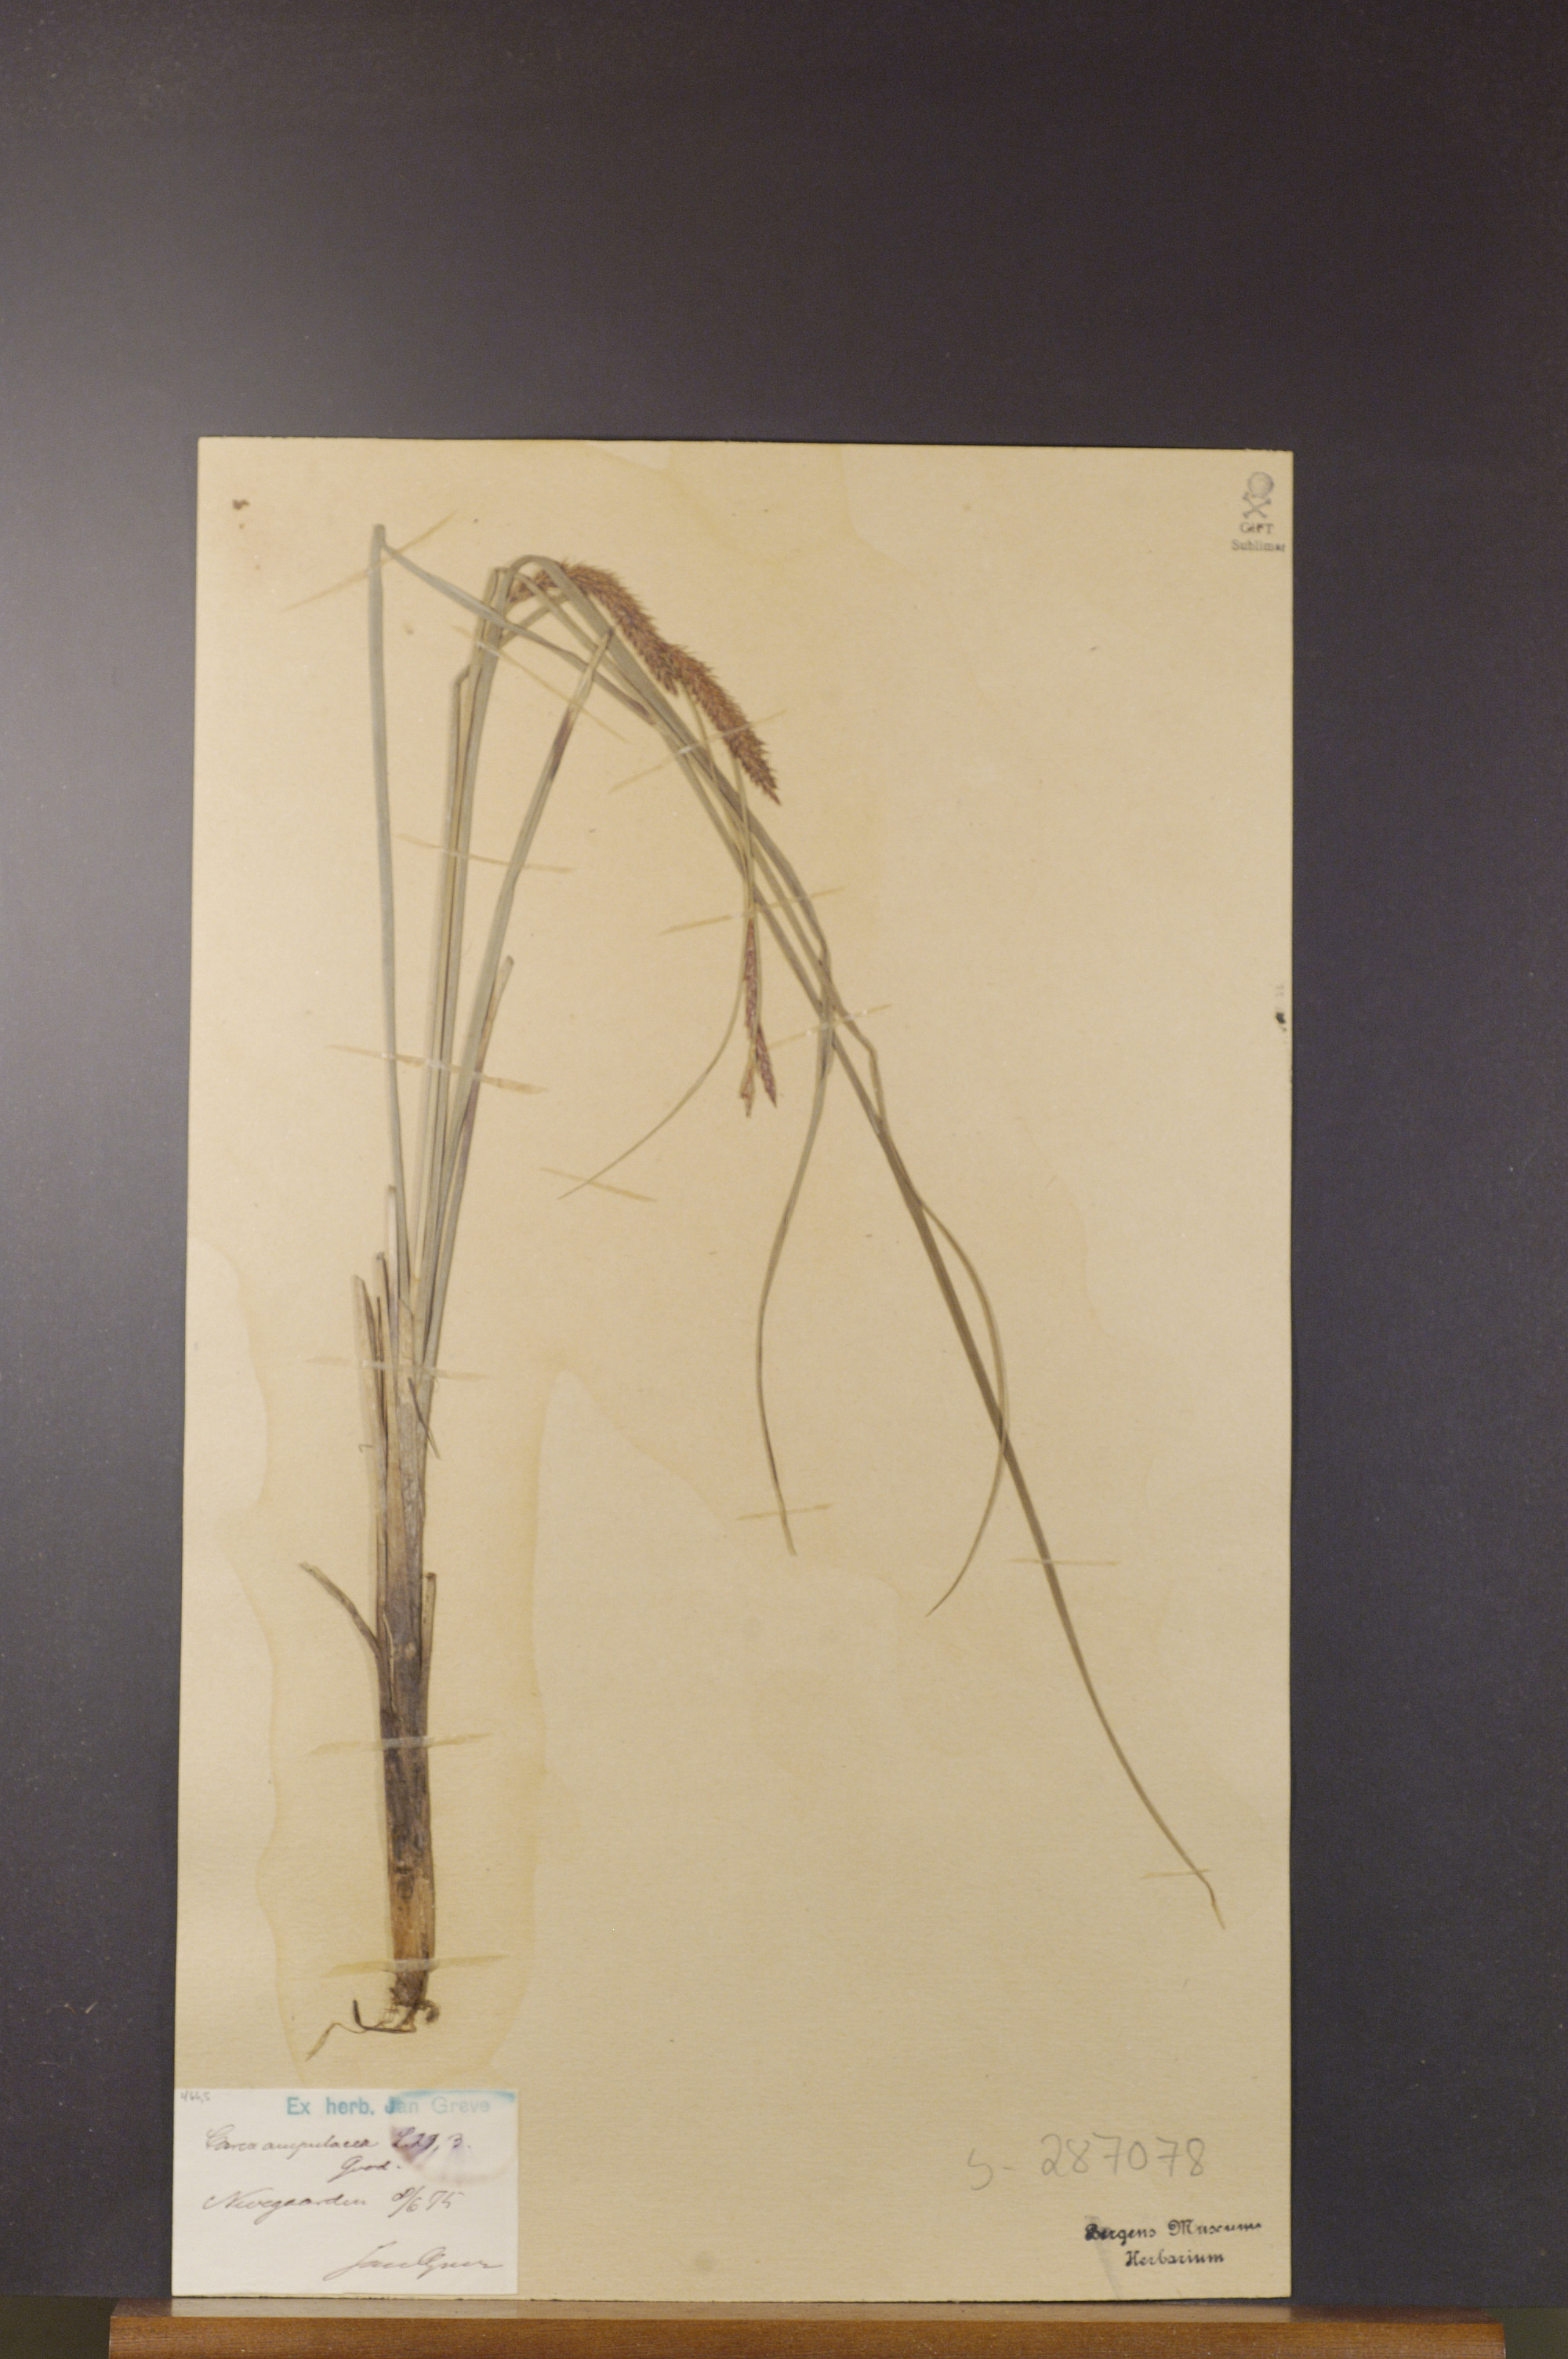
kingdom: Plantae
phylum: Tracheophyta
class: Liliopsida
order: Poales
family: Cyperaceae
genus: Carex
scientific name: Carex rostrata
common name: Bottle sedge
